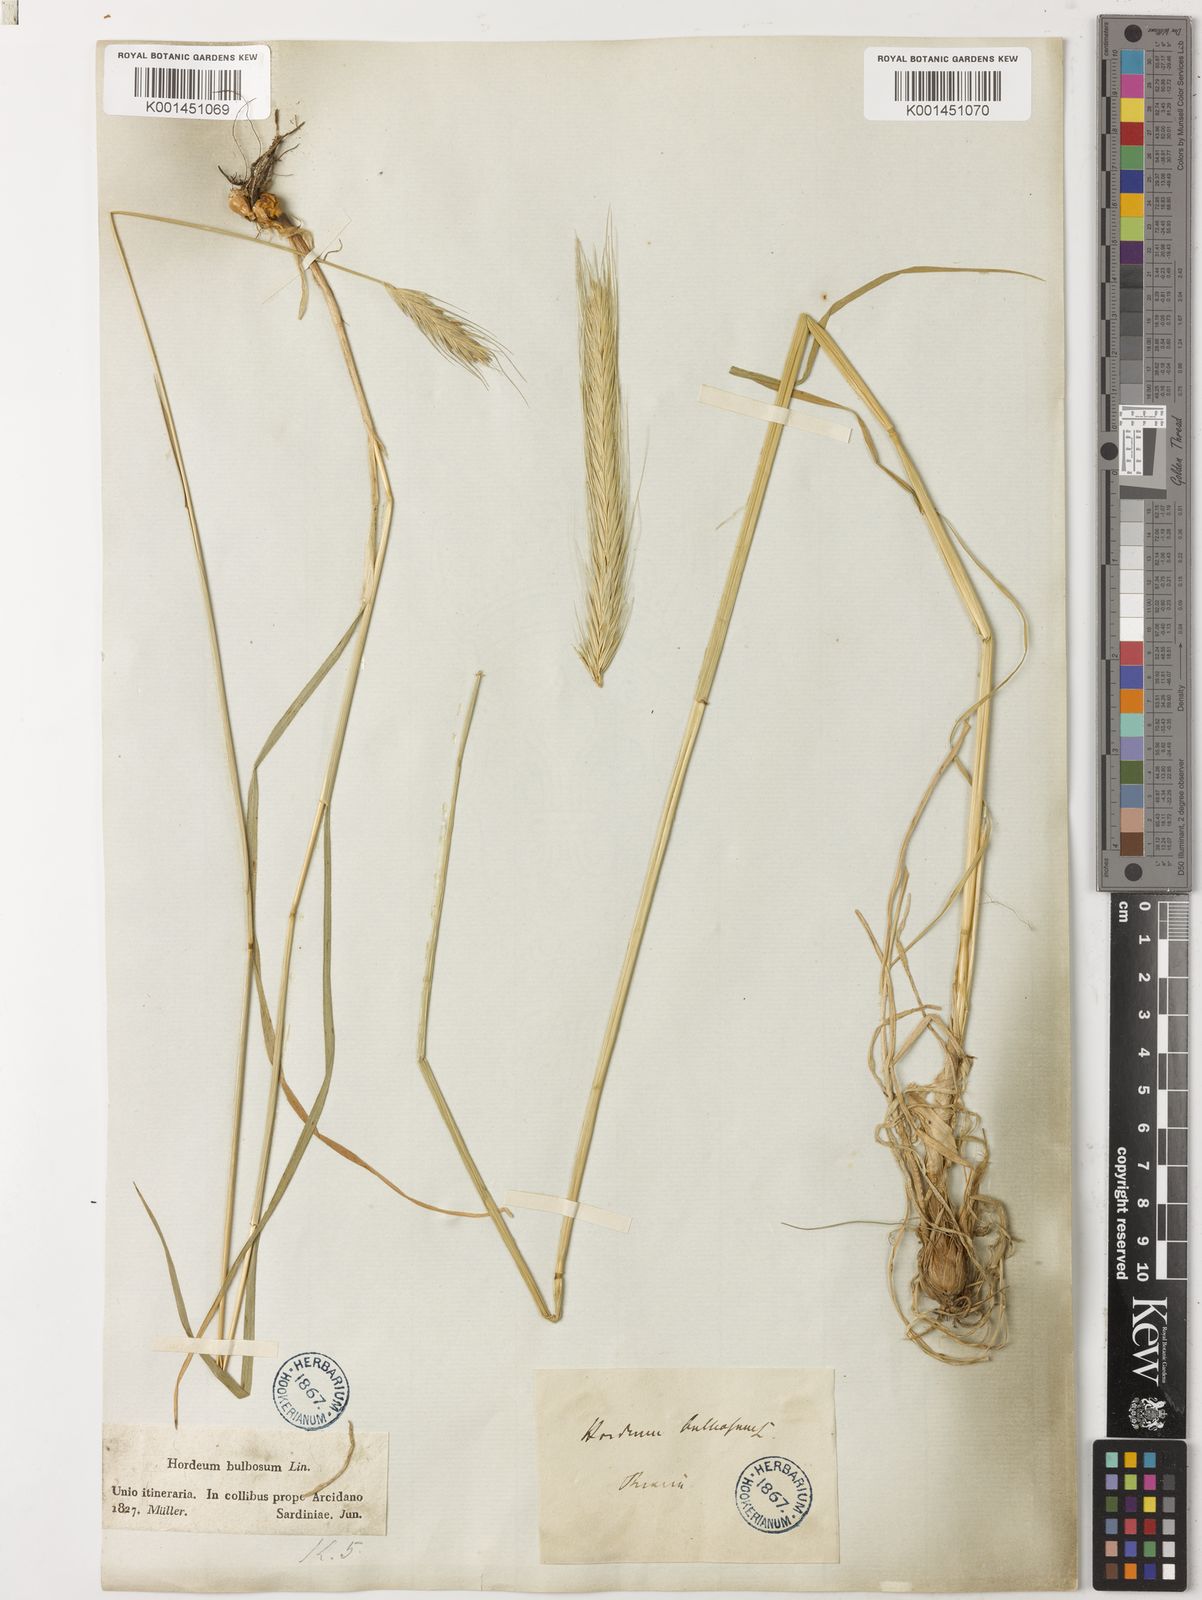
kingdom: Plantae
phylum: Tracheophyta
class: Liliopsida
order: Poales
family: Poaceae
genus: Hordeum
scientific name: Hordeum
